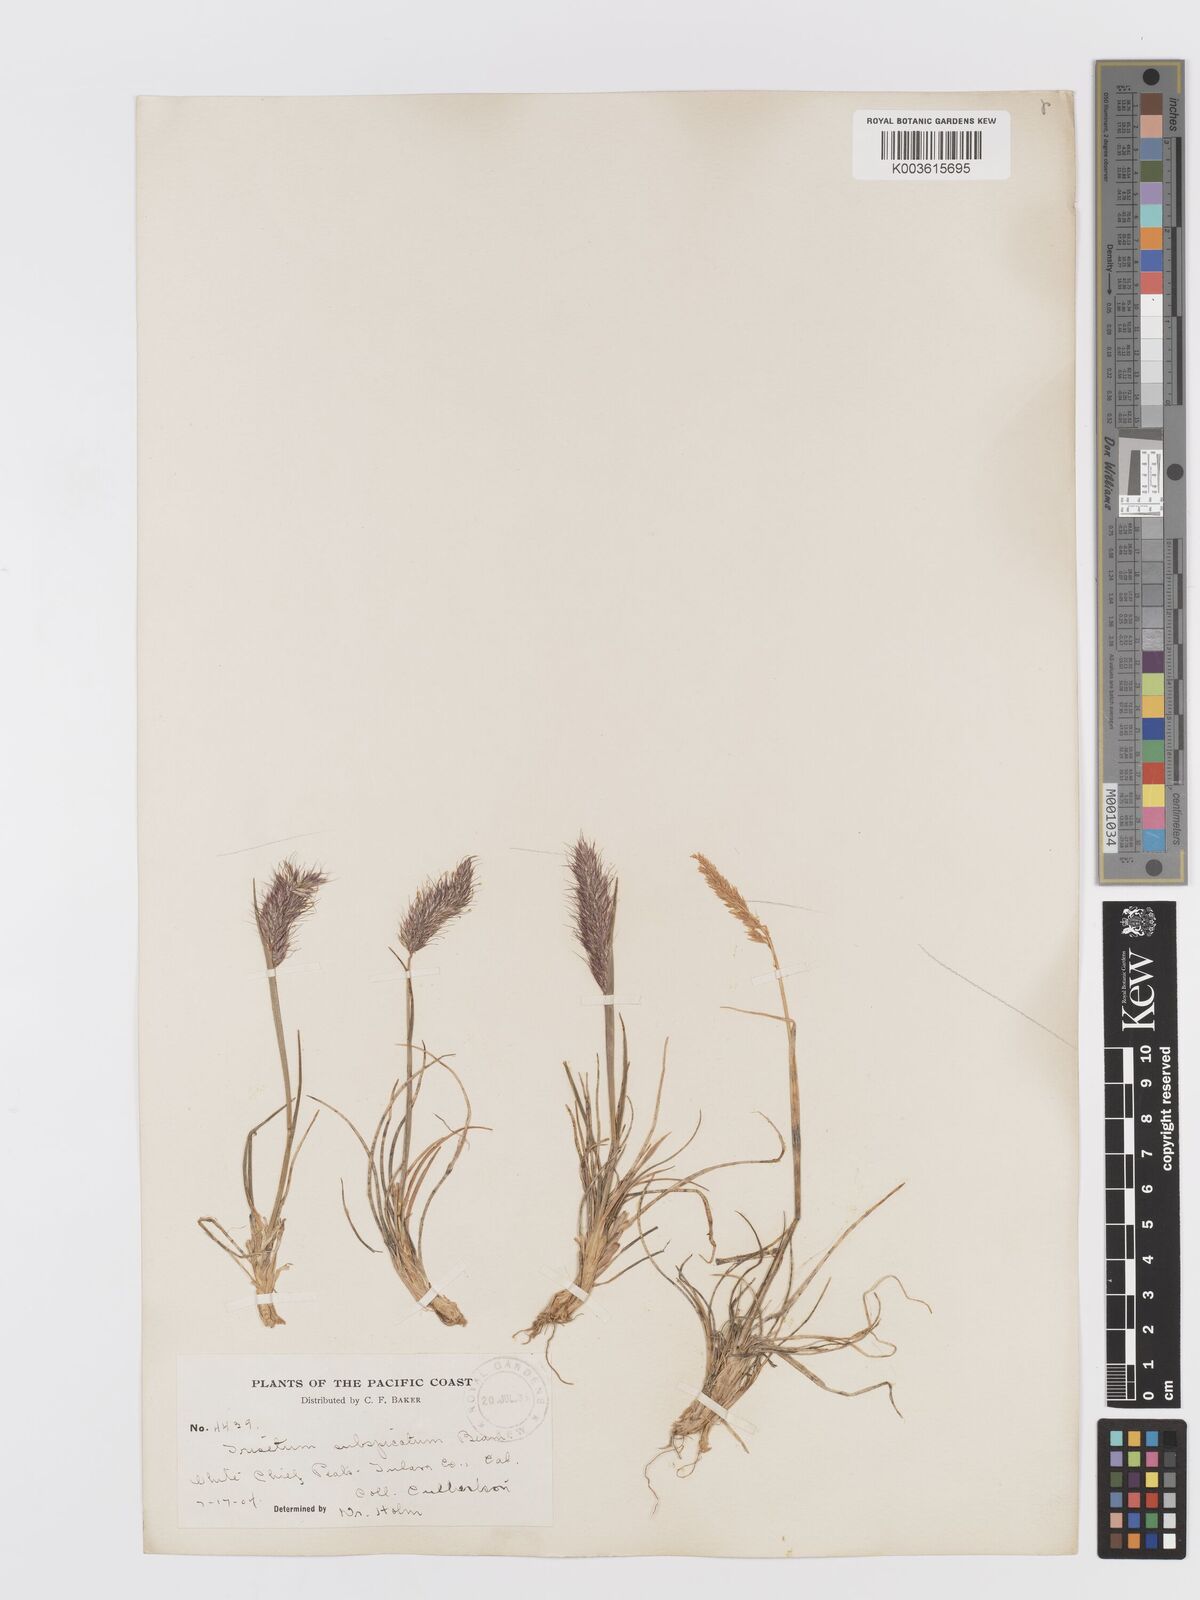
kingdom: Plantae
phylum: Tracheophyta
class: Liliopsida
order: Poales
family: Poaceae
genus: Koeleria
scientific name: Koeleria spicata
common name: Mountain trisetum
